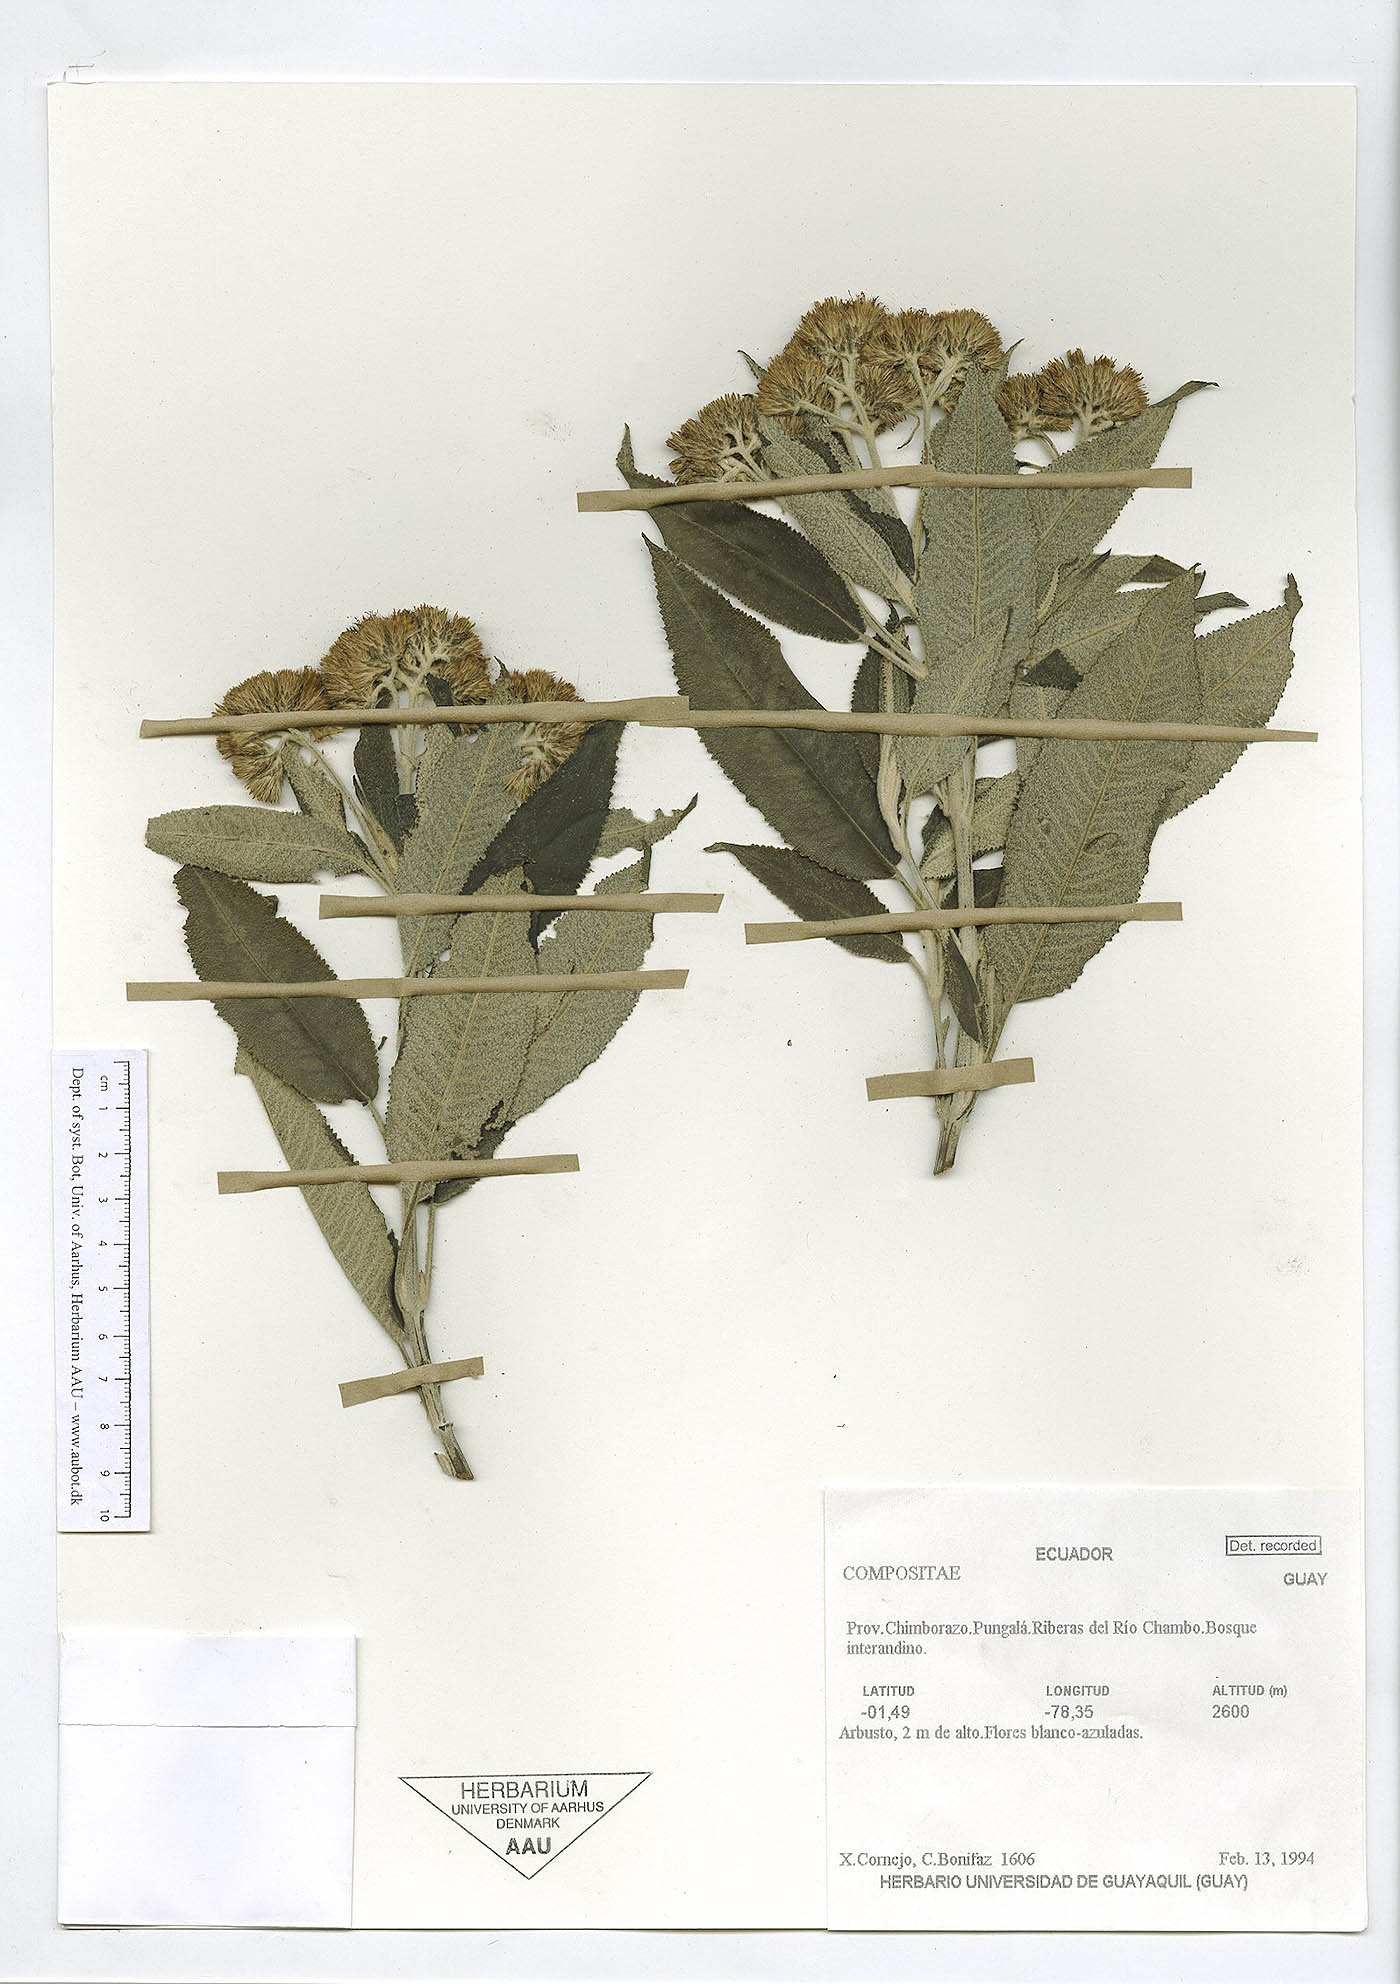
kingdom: Plantae
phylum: Tracheophyta
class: Magnoliopsida
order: Asterales
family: Asteraceae
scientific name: Asteraceae
